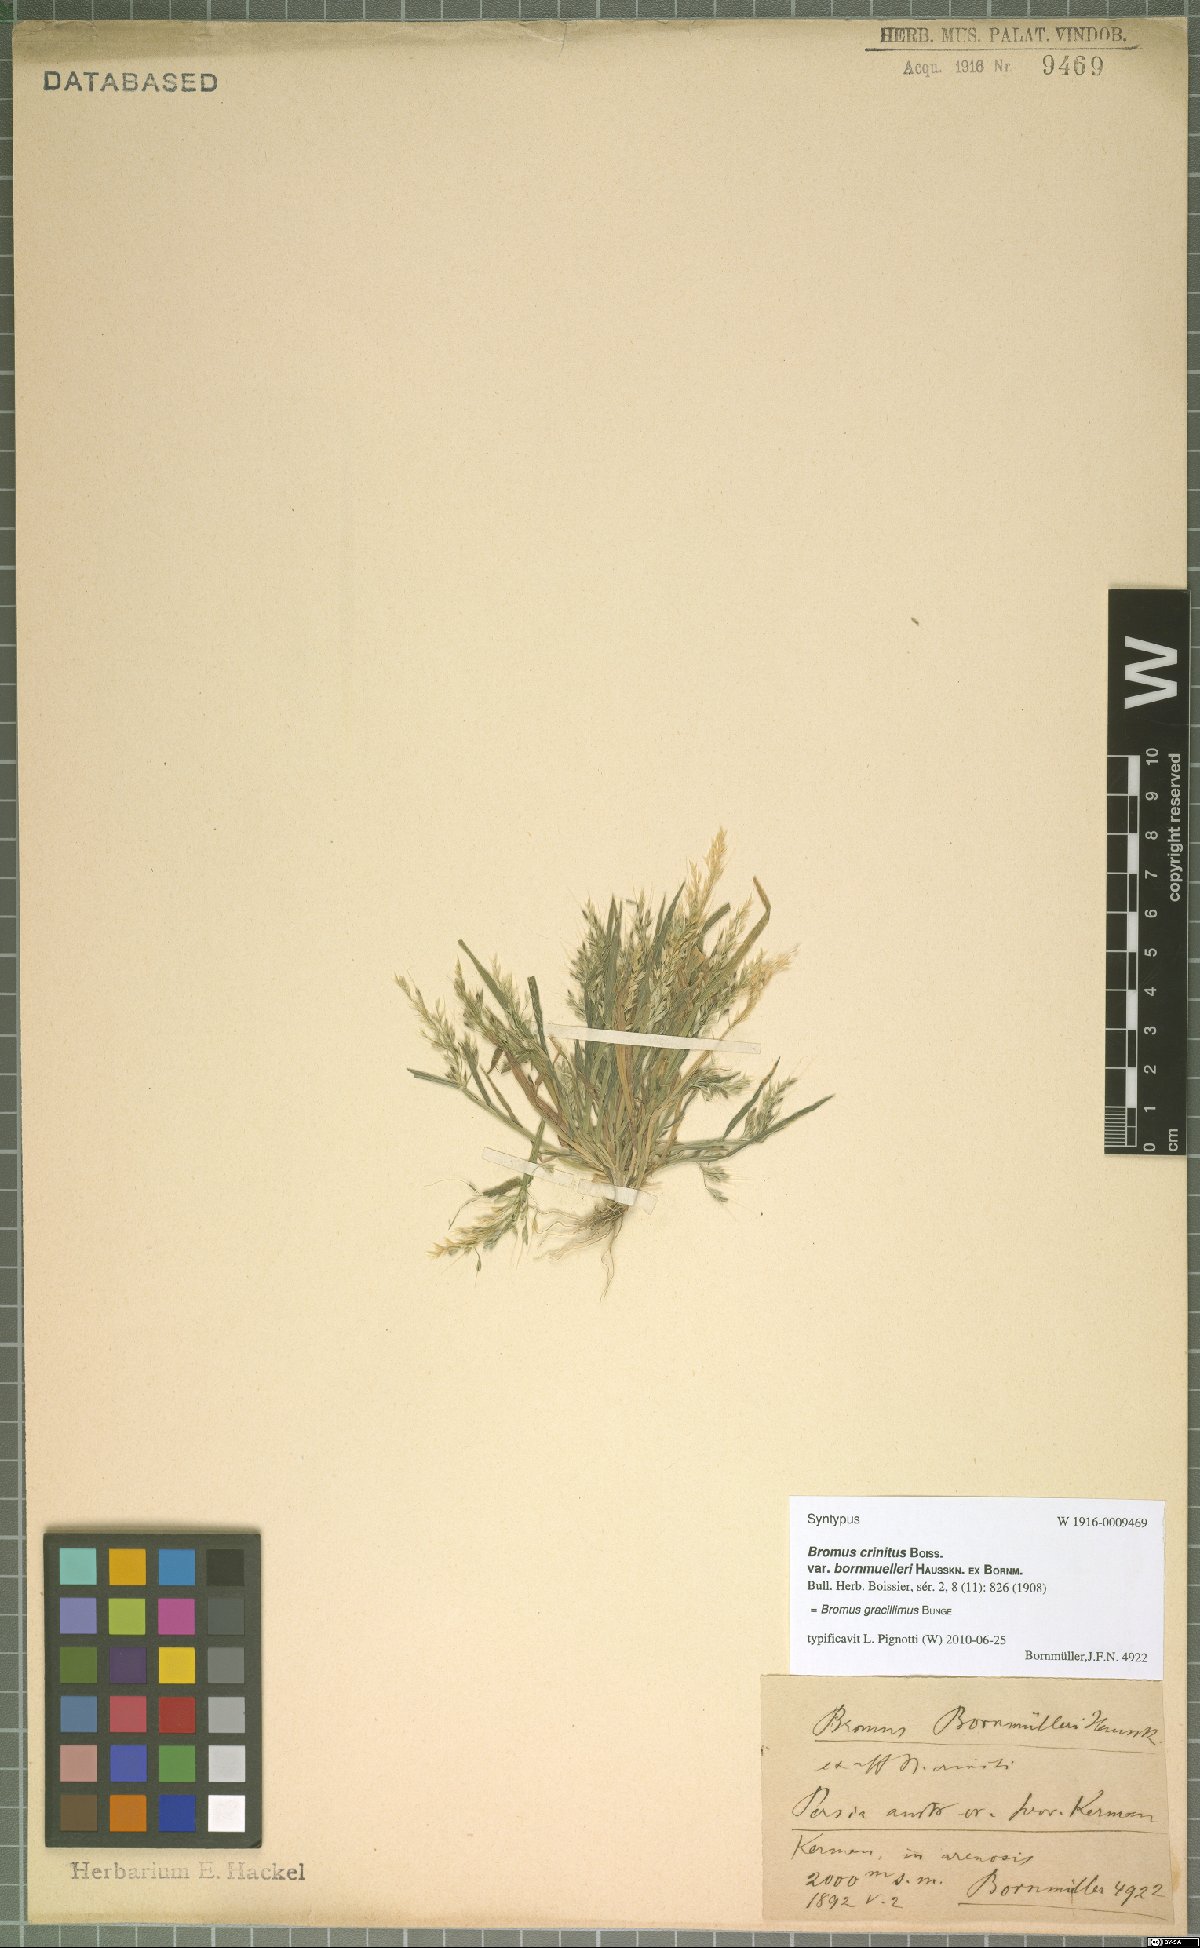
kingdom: Plantae
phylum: Tracheophyta
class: Liliopsida
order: Poales
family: Poaceae
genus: Bromus
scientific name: Bromus gracillimus
